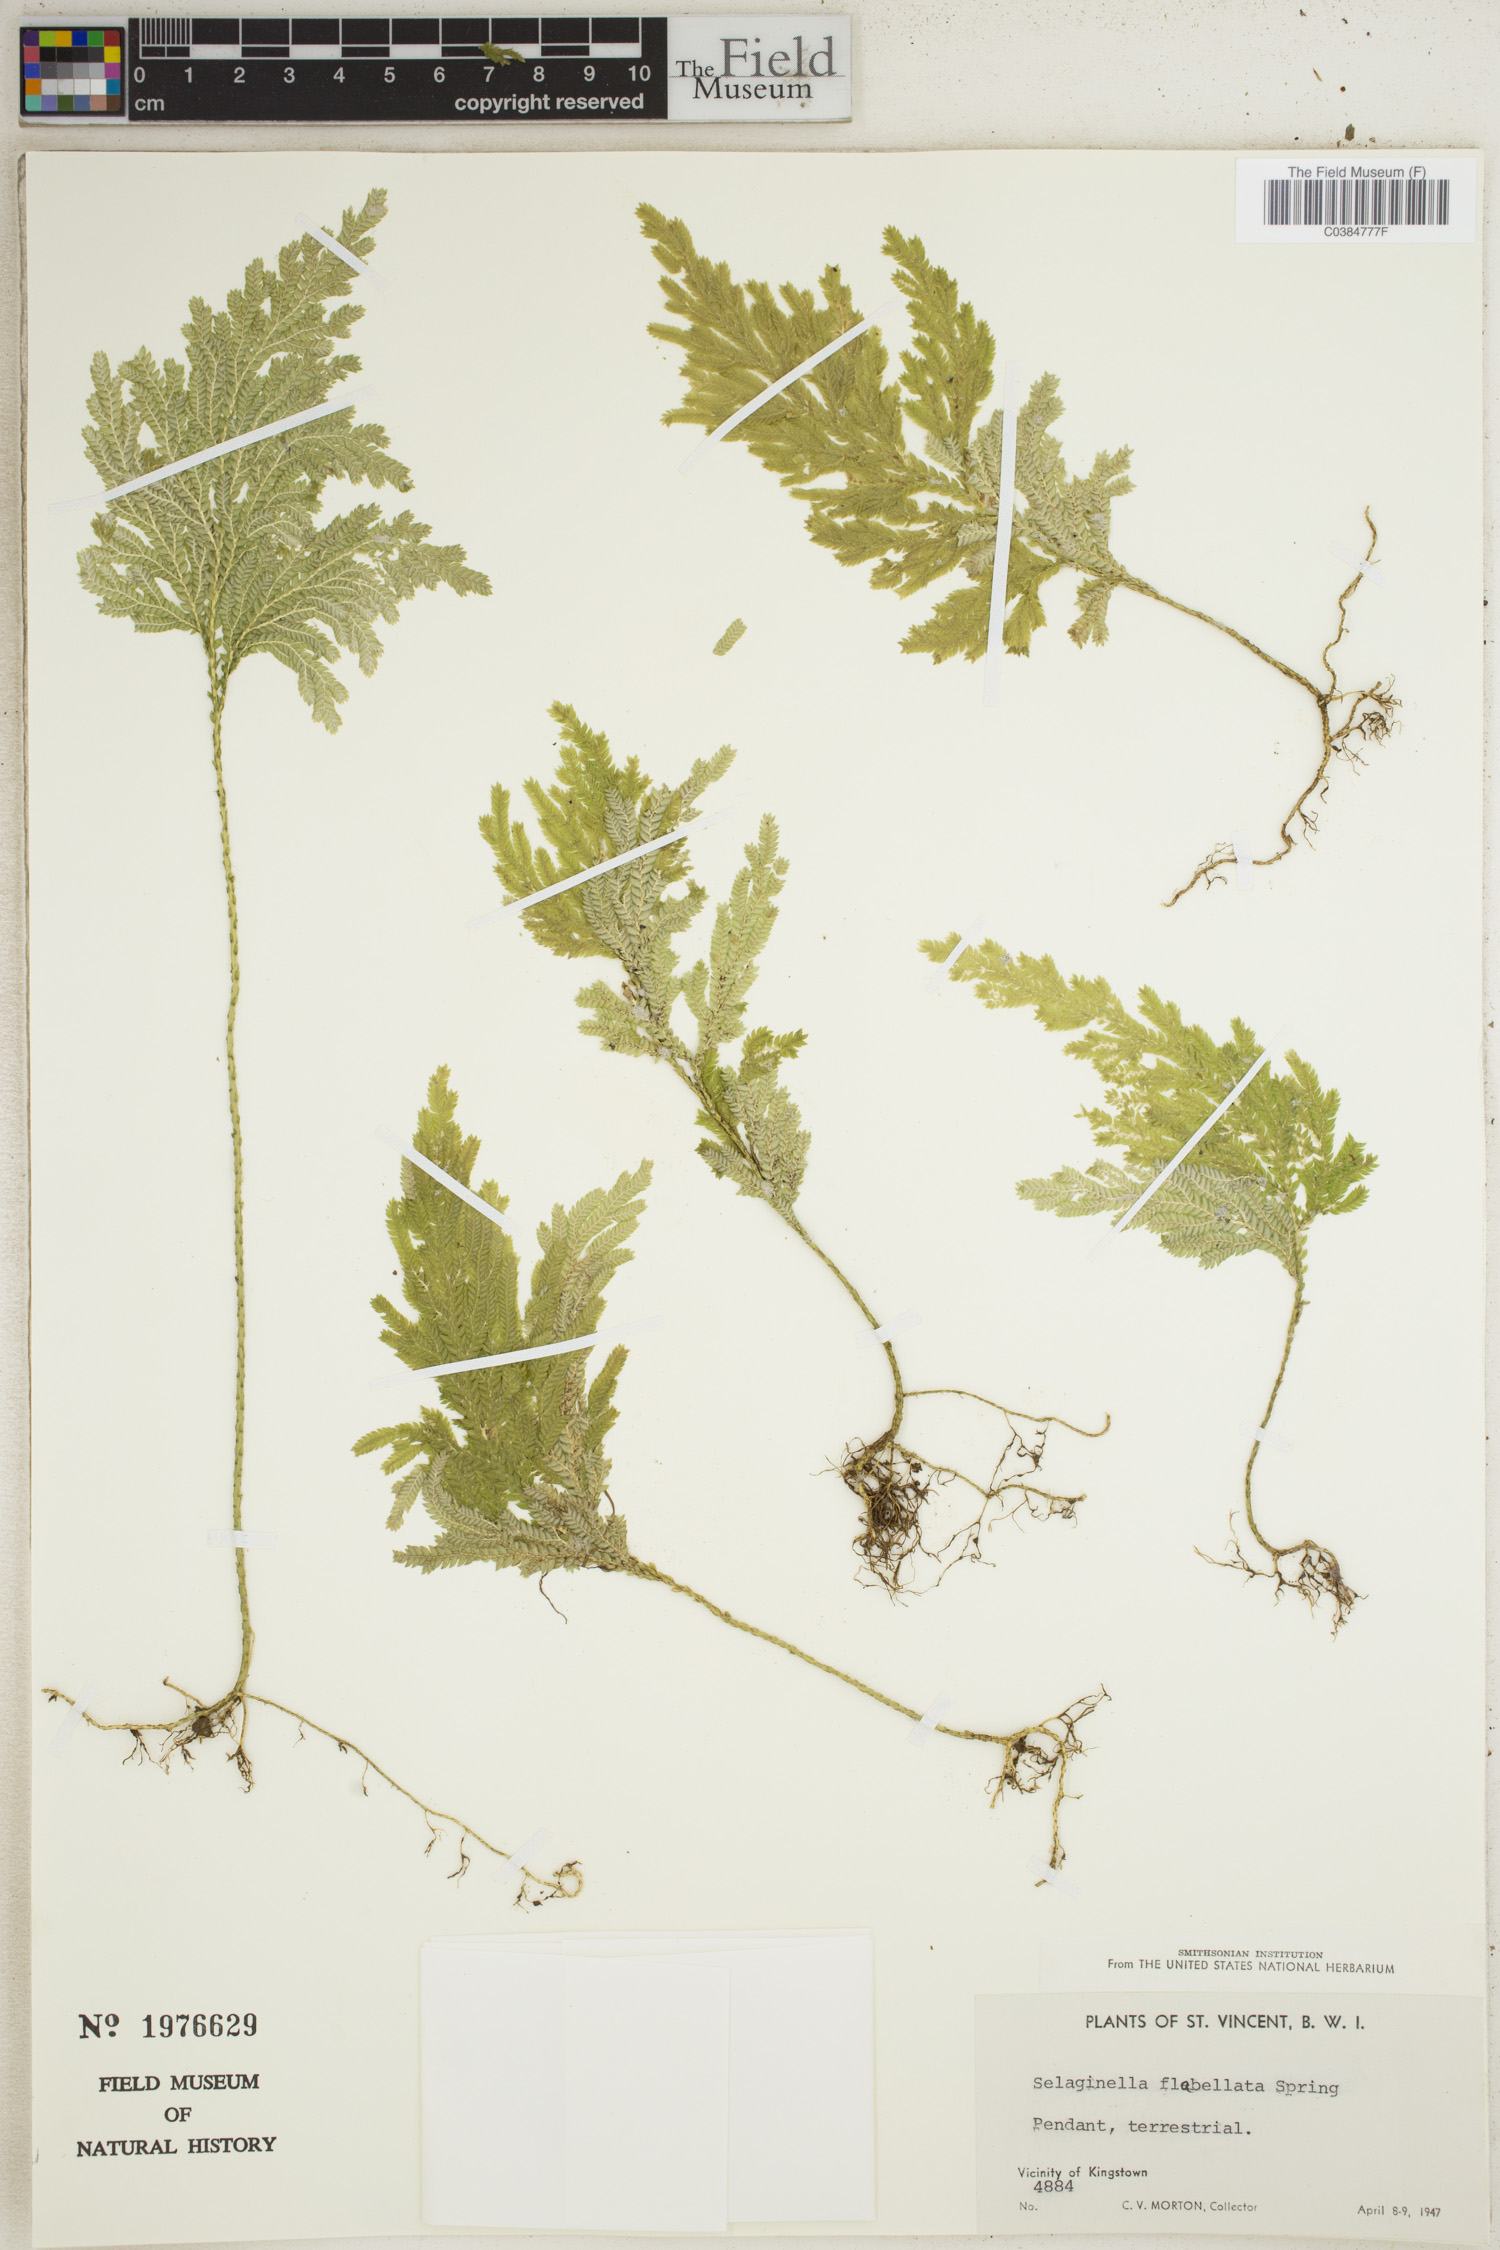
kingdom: Plantae
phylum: Tracheophyta
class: Lycopodiopsida
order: Selaginellales
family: Selaginellaceae
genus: Selaginella
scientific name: Selaginella flabellata
